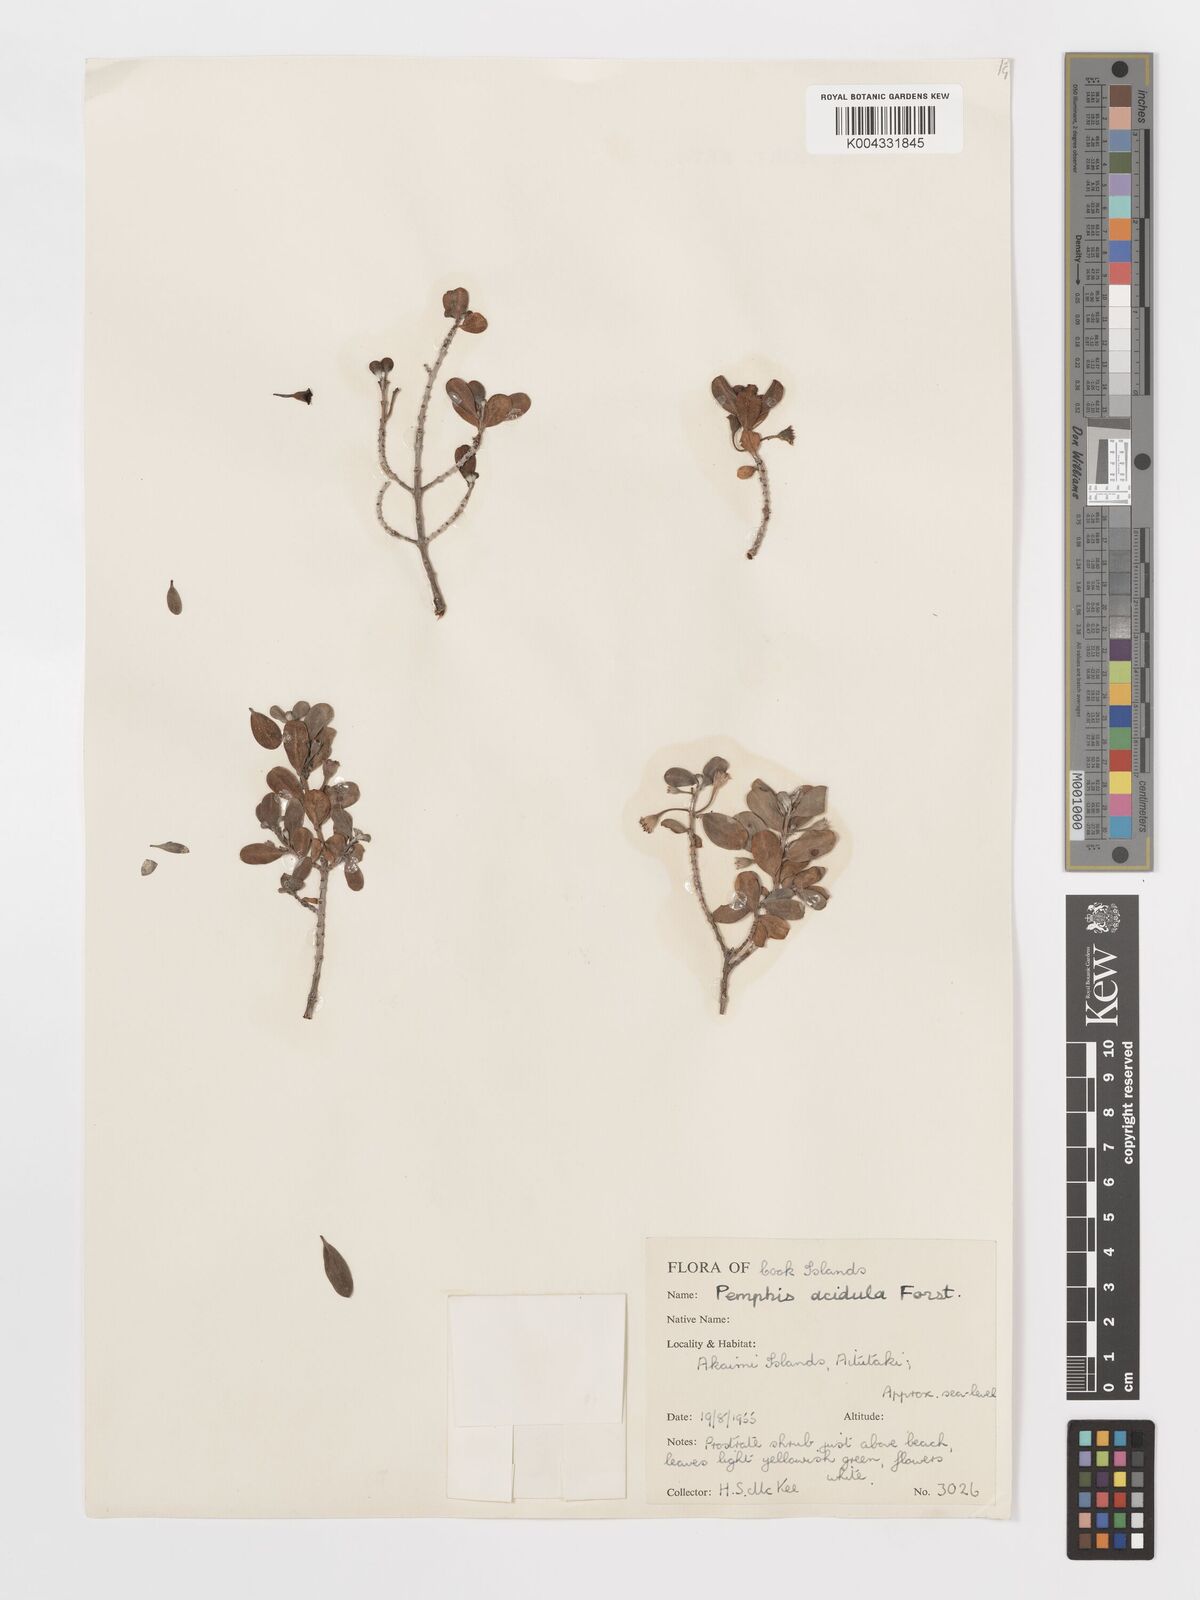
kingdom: Plantae
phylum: Tracheophyta
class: Magnoliopsida
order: Myrtales
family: Lythraceae
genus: Pemphis
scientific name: Pemphis acidula
